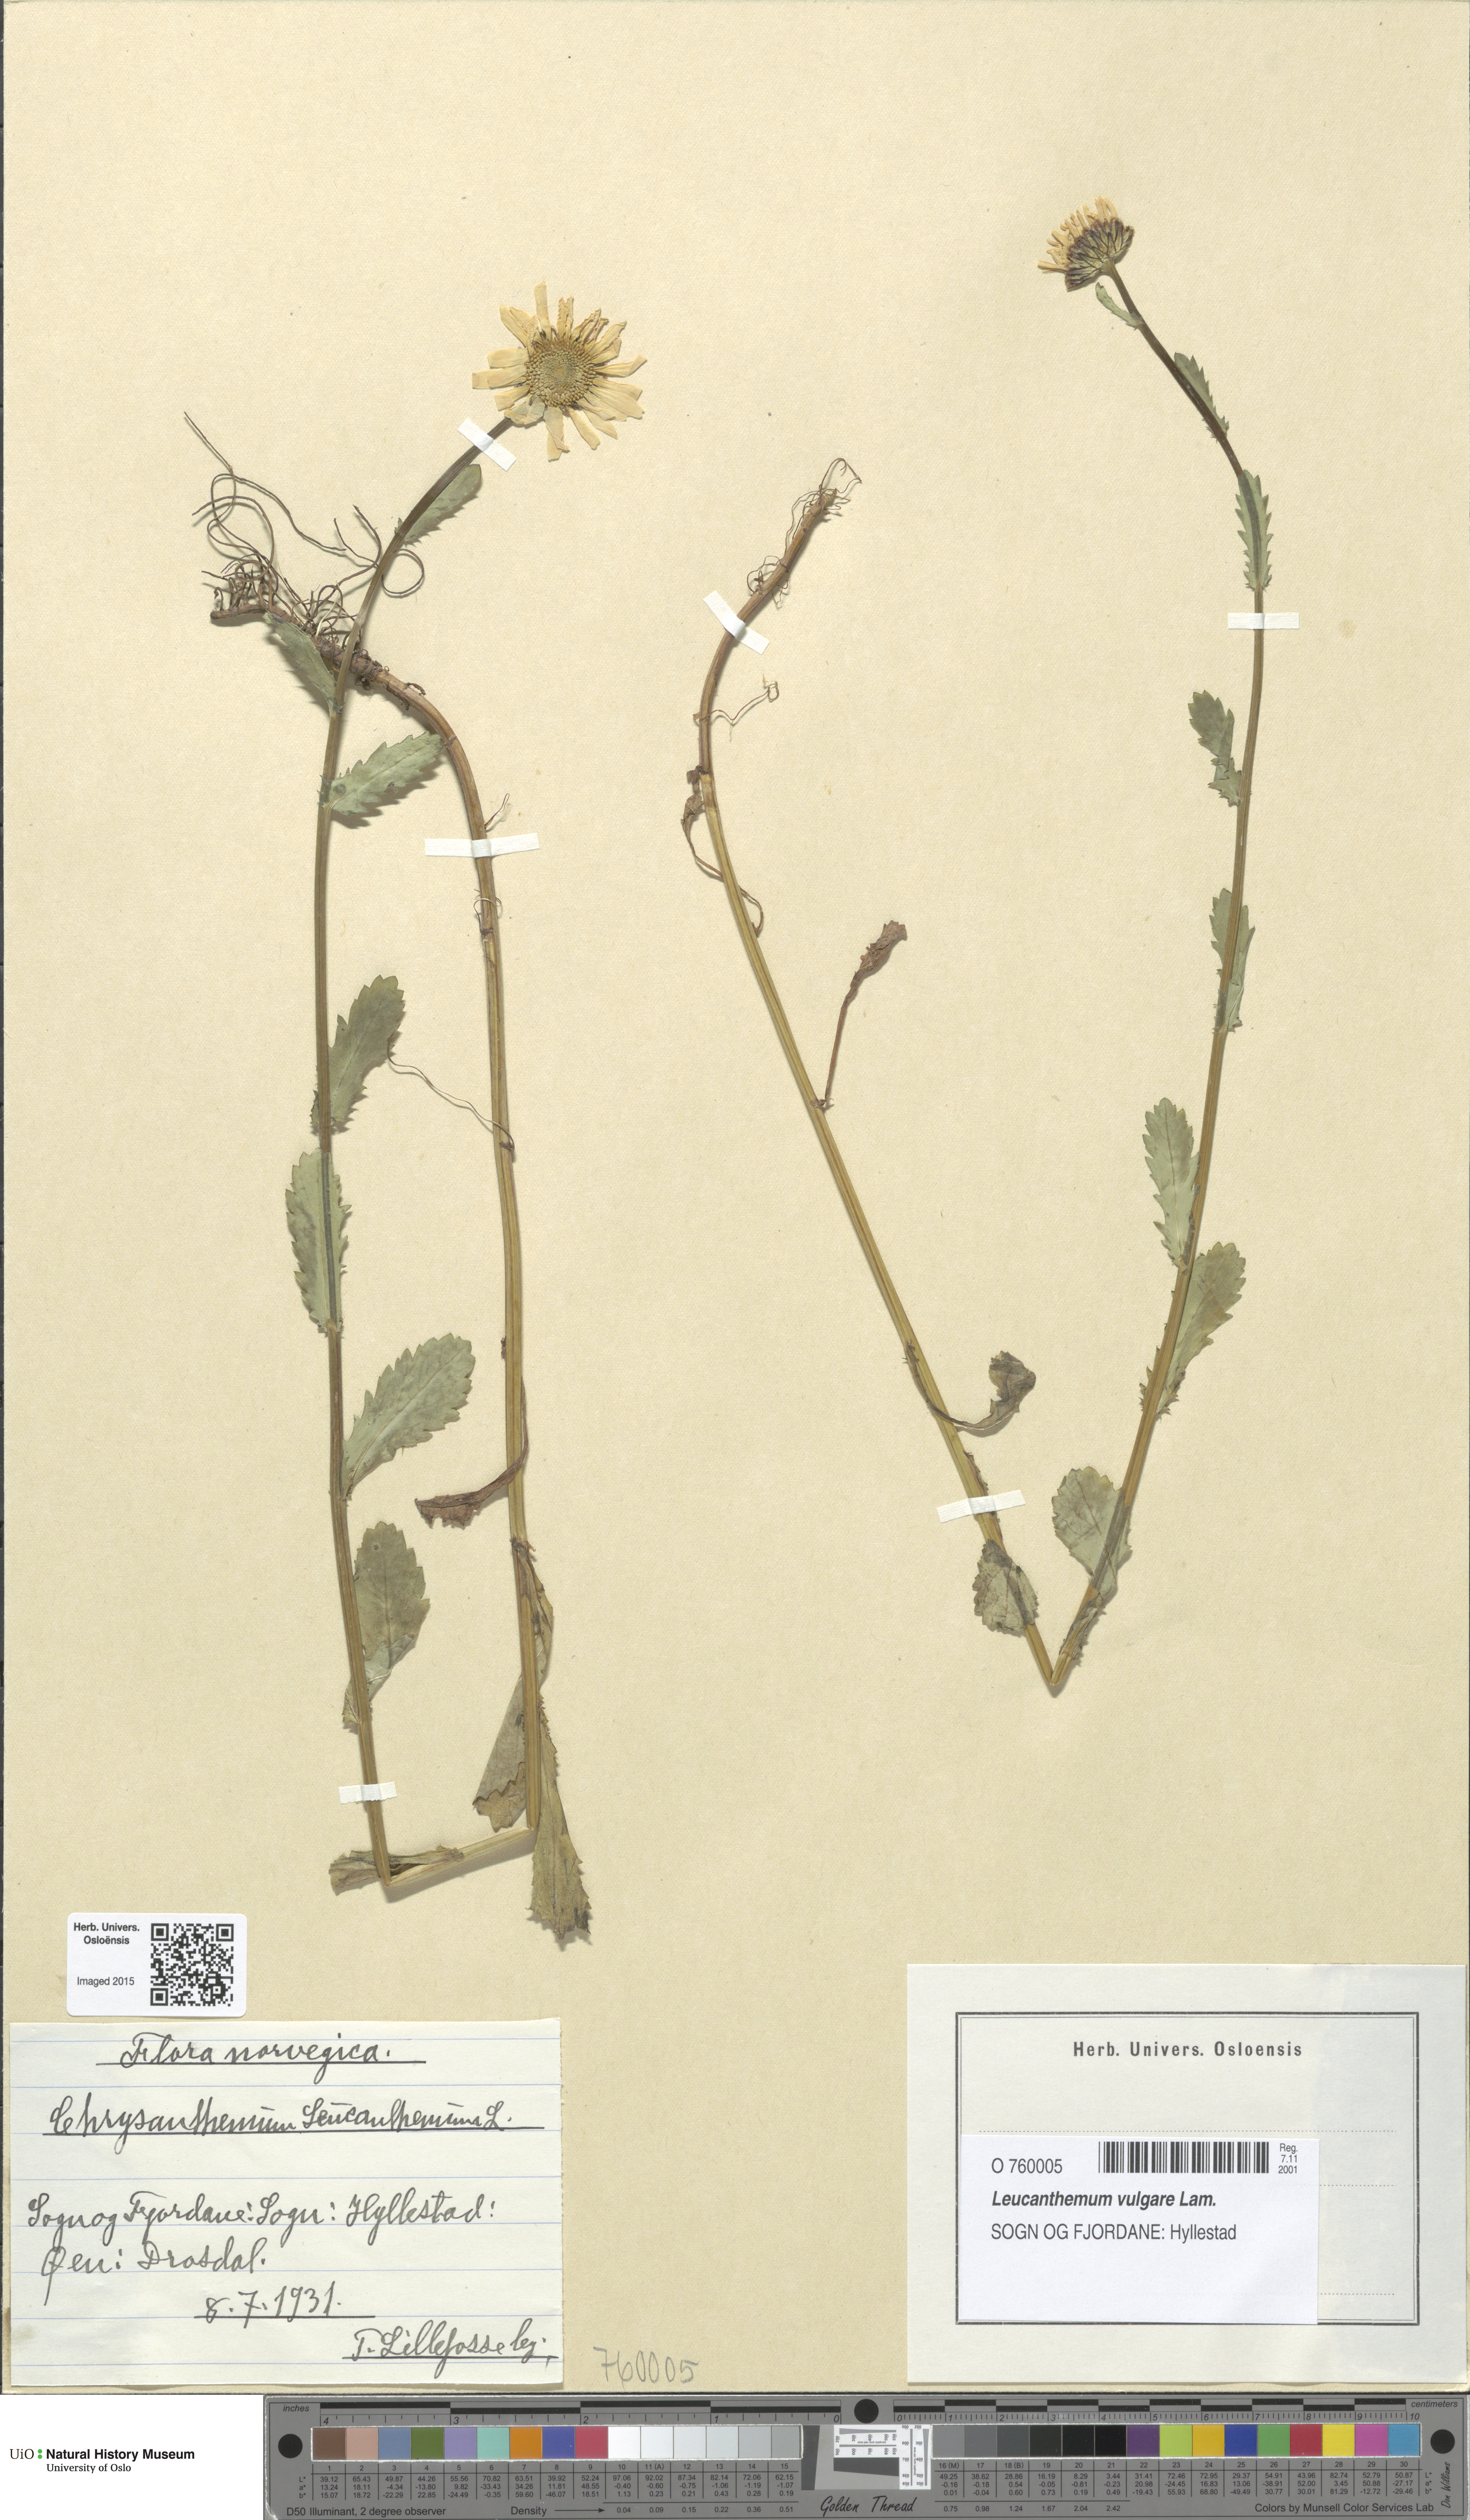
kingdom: Plantae
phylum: Tracheophyta
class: Magnoliopsida
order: Asterales
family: Asteraceae
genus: Leucanthemum
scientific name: Leucanthemum vulgare
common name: Oxeye daisy
